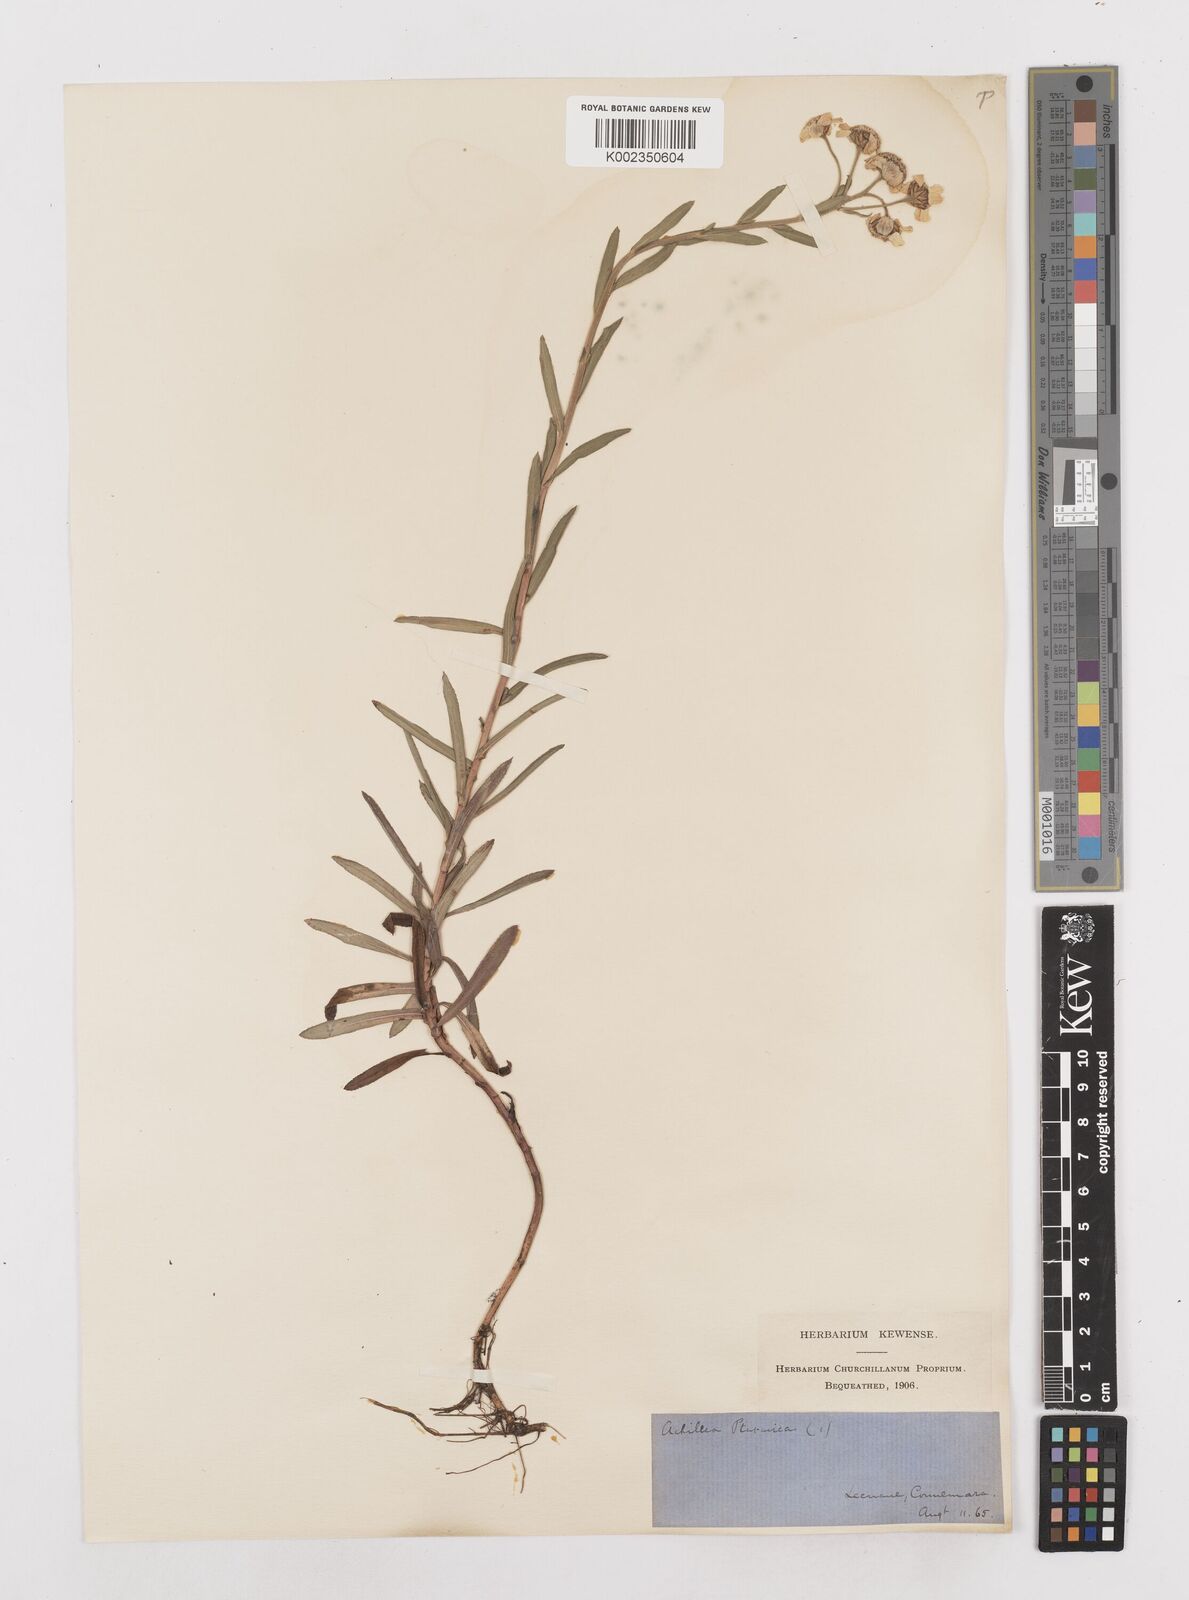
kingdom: Plantae
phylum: Tracheophyta
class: Magnoliopsida
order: Asterales
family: Asteraceae
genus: Achillea
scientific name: Achillea ptarmica
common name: Sneezeweed
